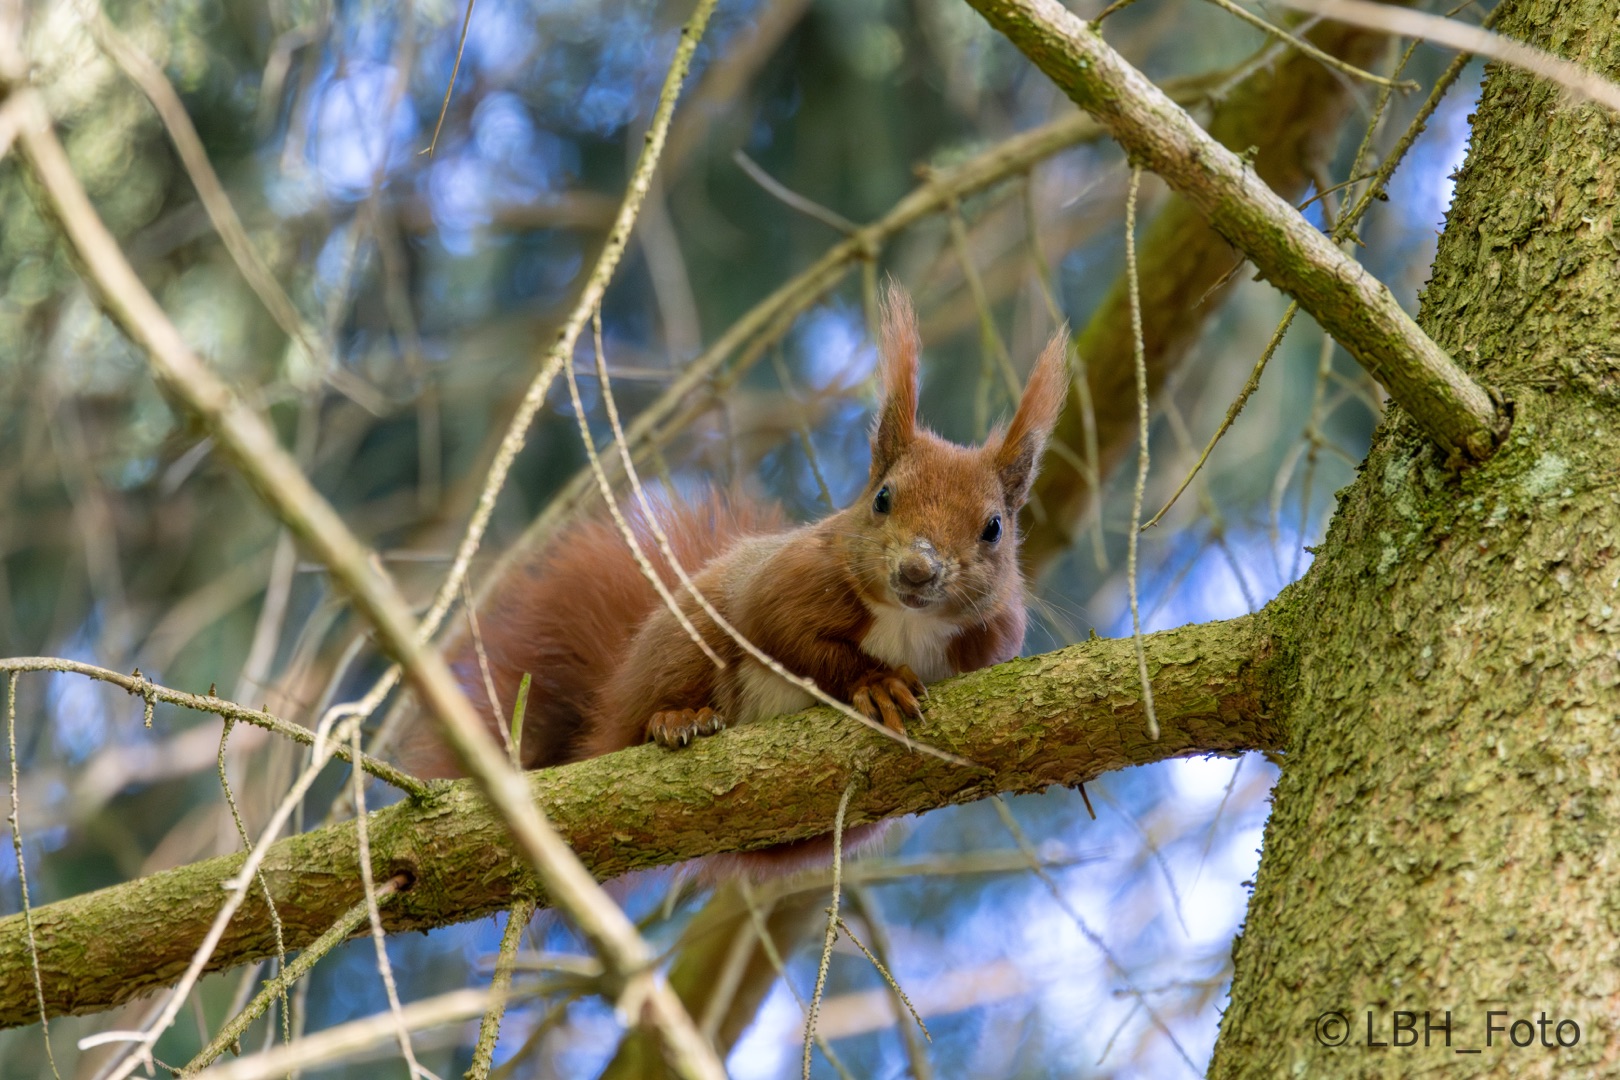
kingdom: Animalia
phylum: Chordata
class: Mammalia
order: Rodentia
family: Sciuridae
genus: Sciurus
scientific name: Sciurus vulgaris
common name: Egern
